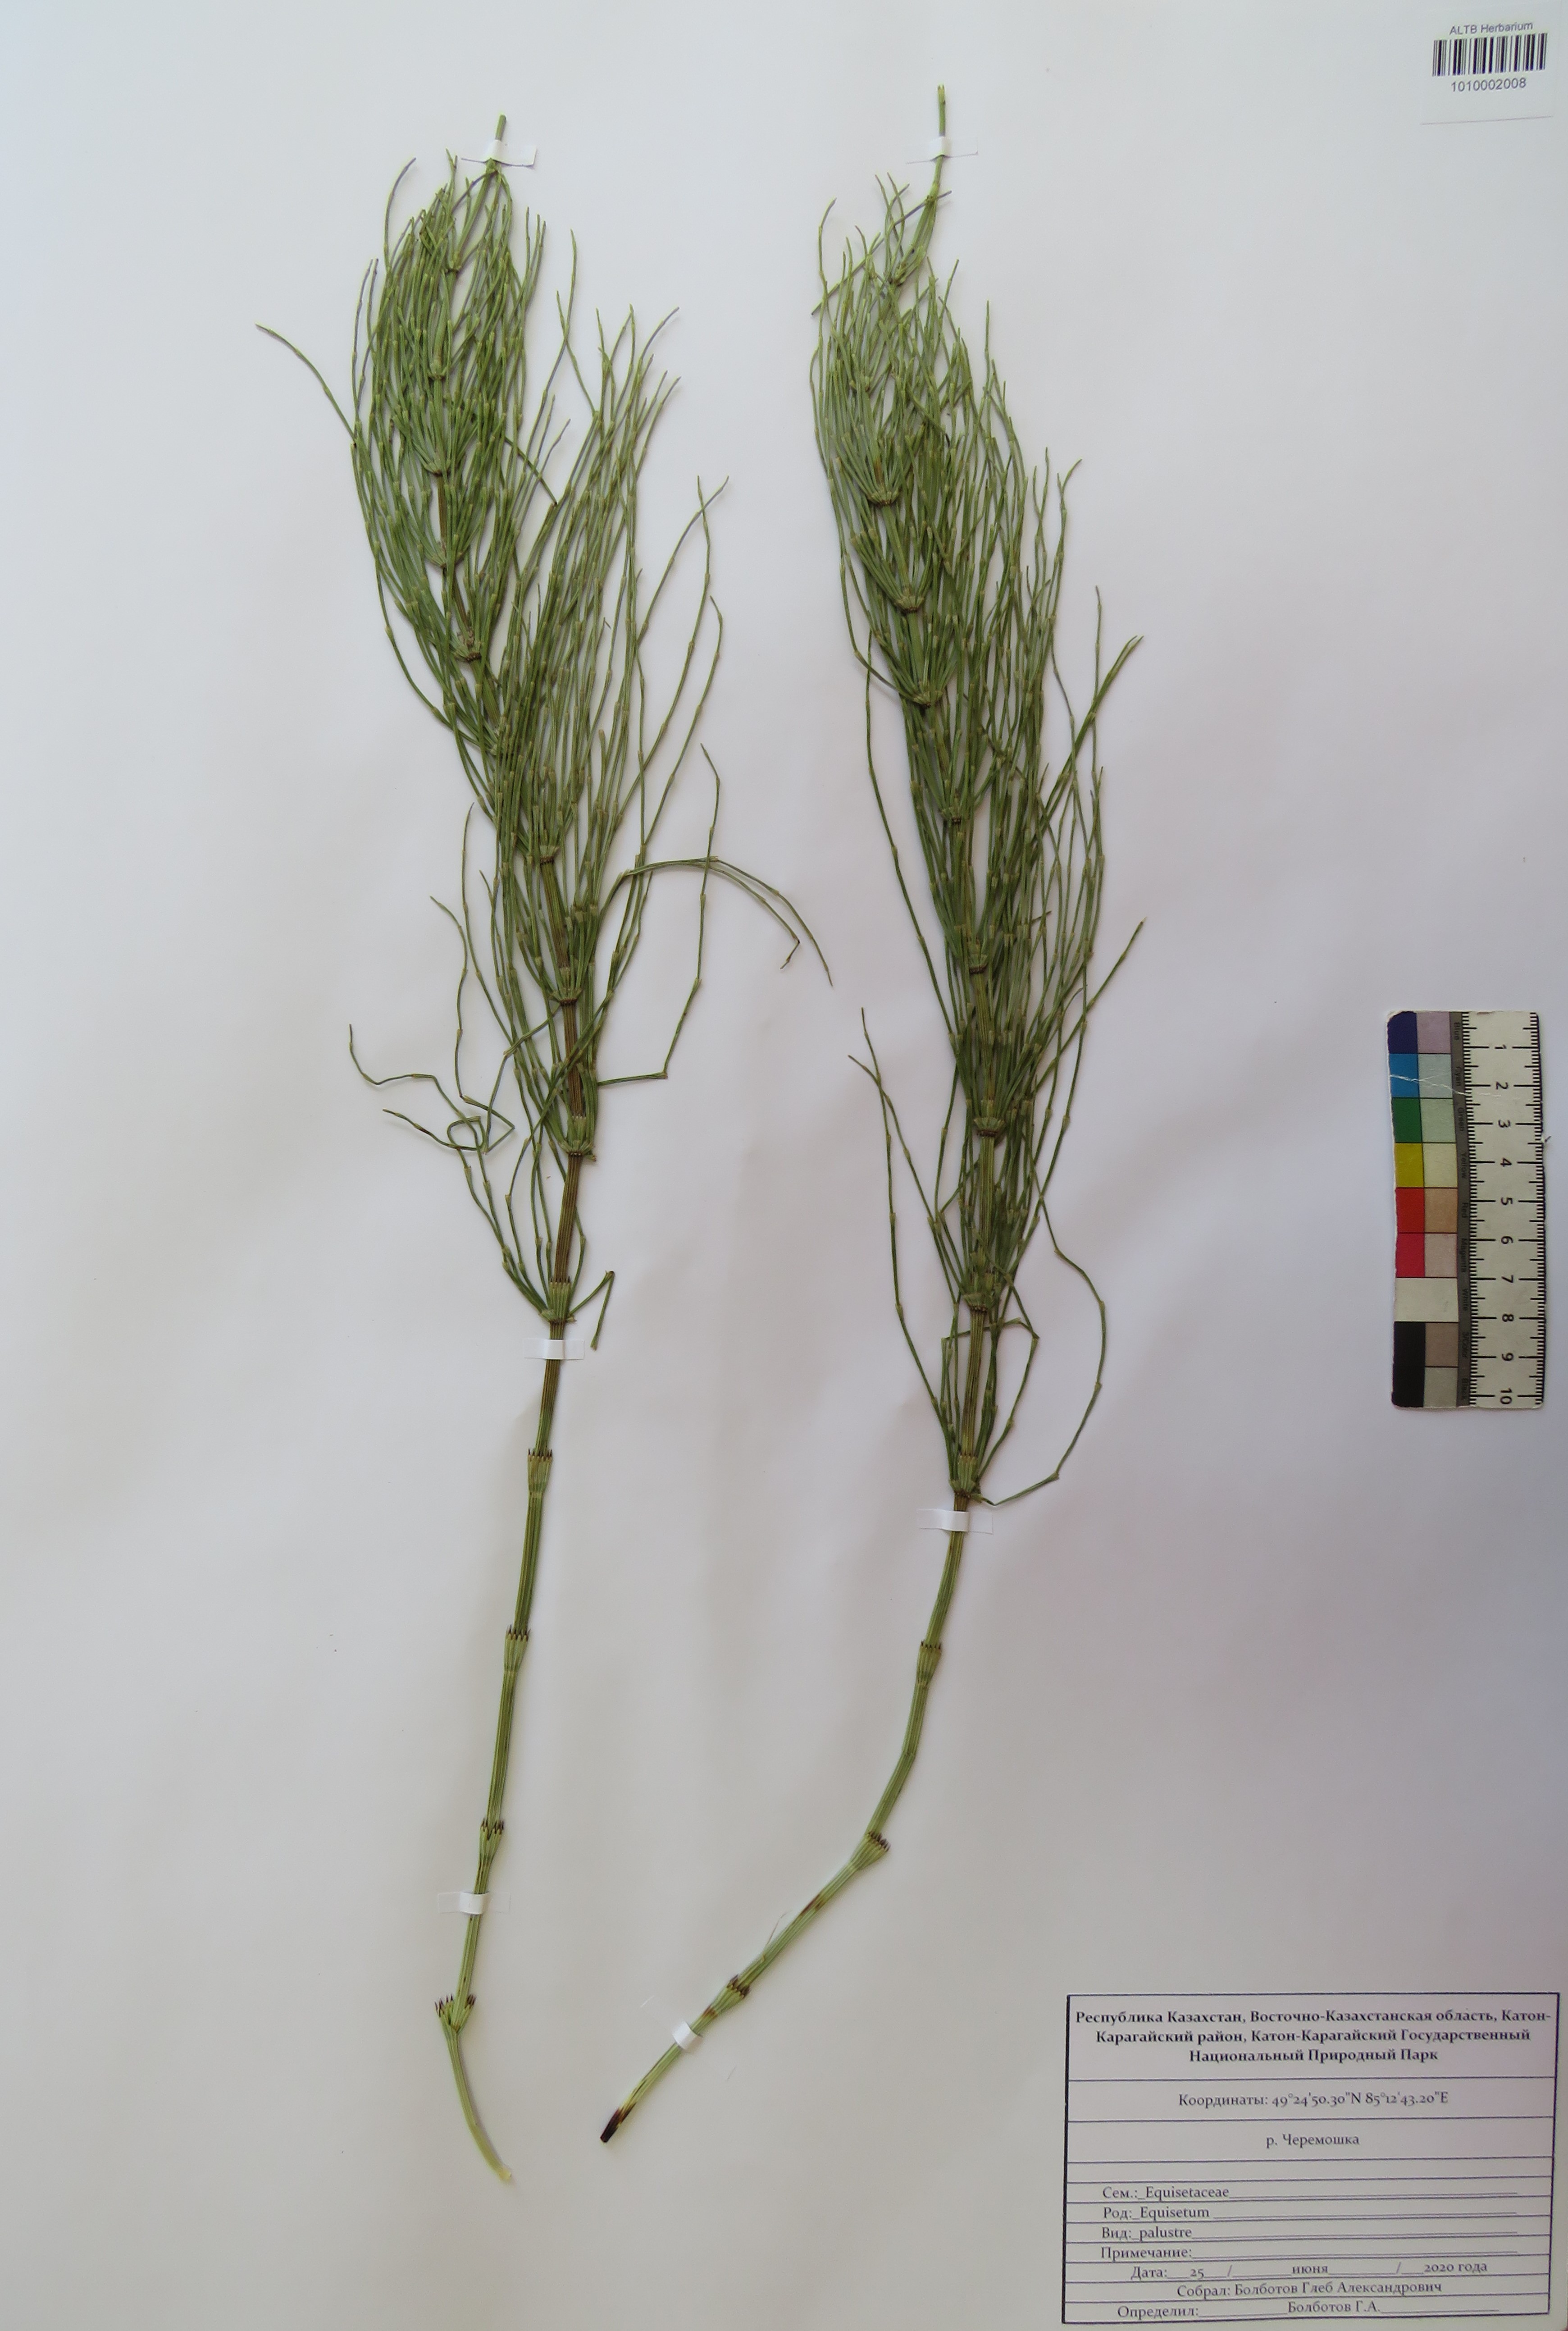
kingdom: Plantae
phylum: Tracheophyta
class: Polypodiopsida
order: Equisetales
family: Equisetaceae
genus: Equisetum
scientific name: Equisetum palustre
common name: Marsh horsetail
